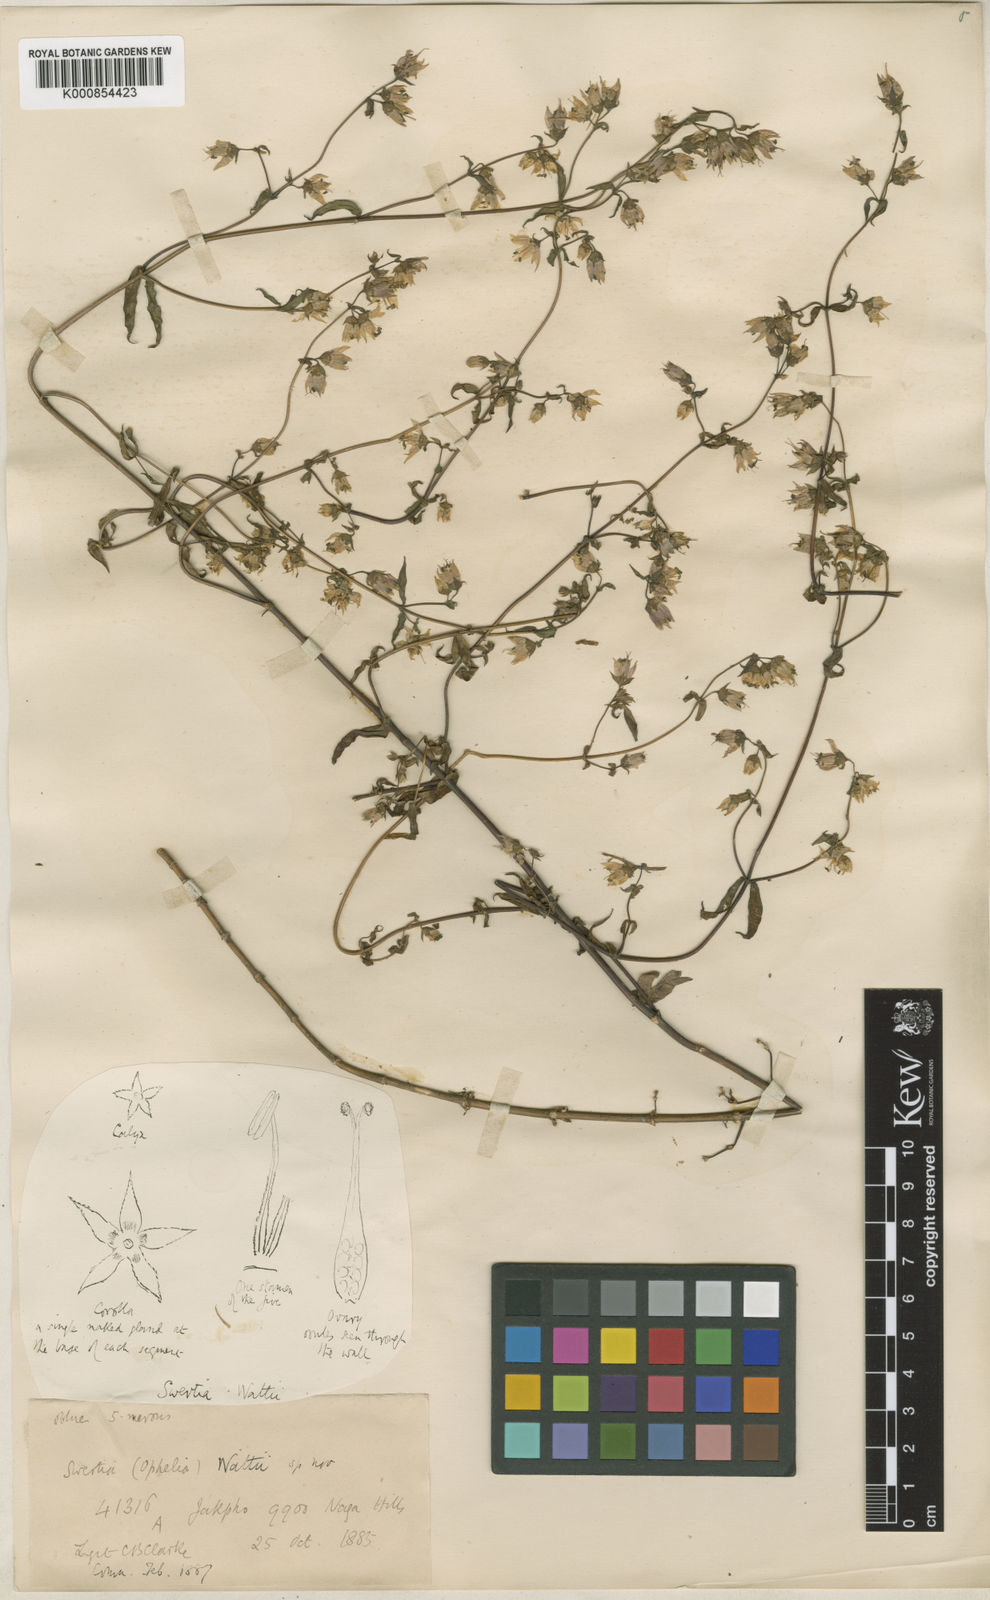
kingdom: Plantae
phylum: Tracheophyta
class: Magnoliopsida
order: Gentianales
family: Gentianaceae
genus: Swertia
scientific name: Swertia wattii
